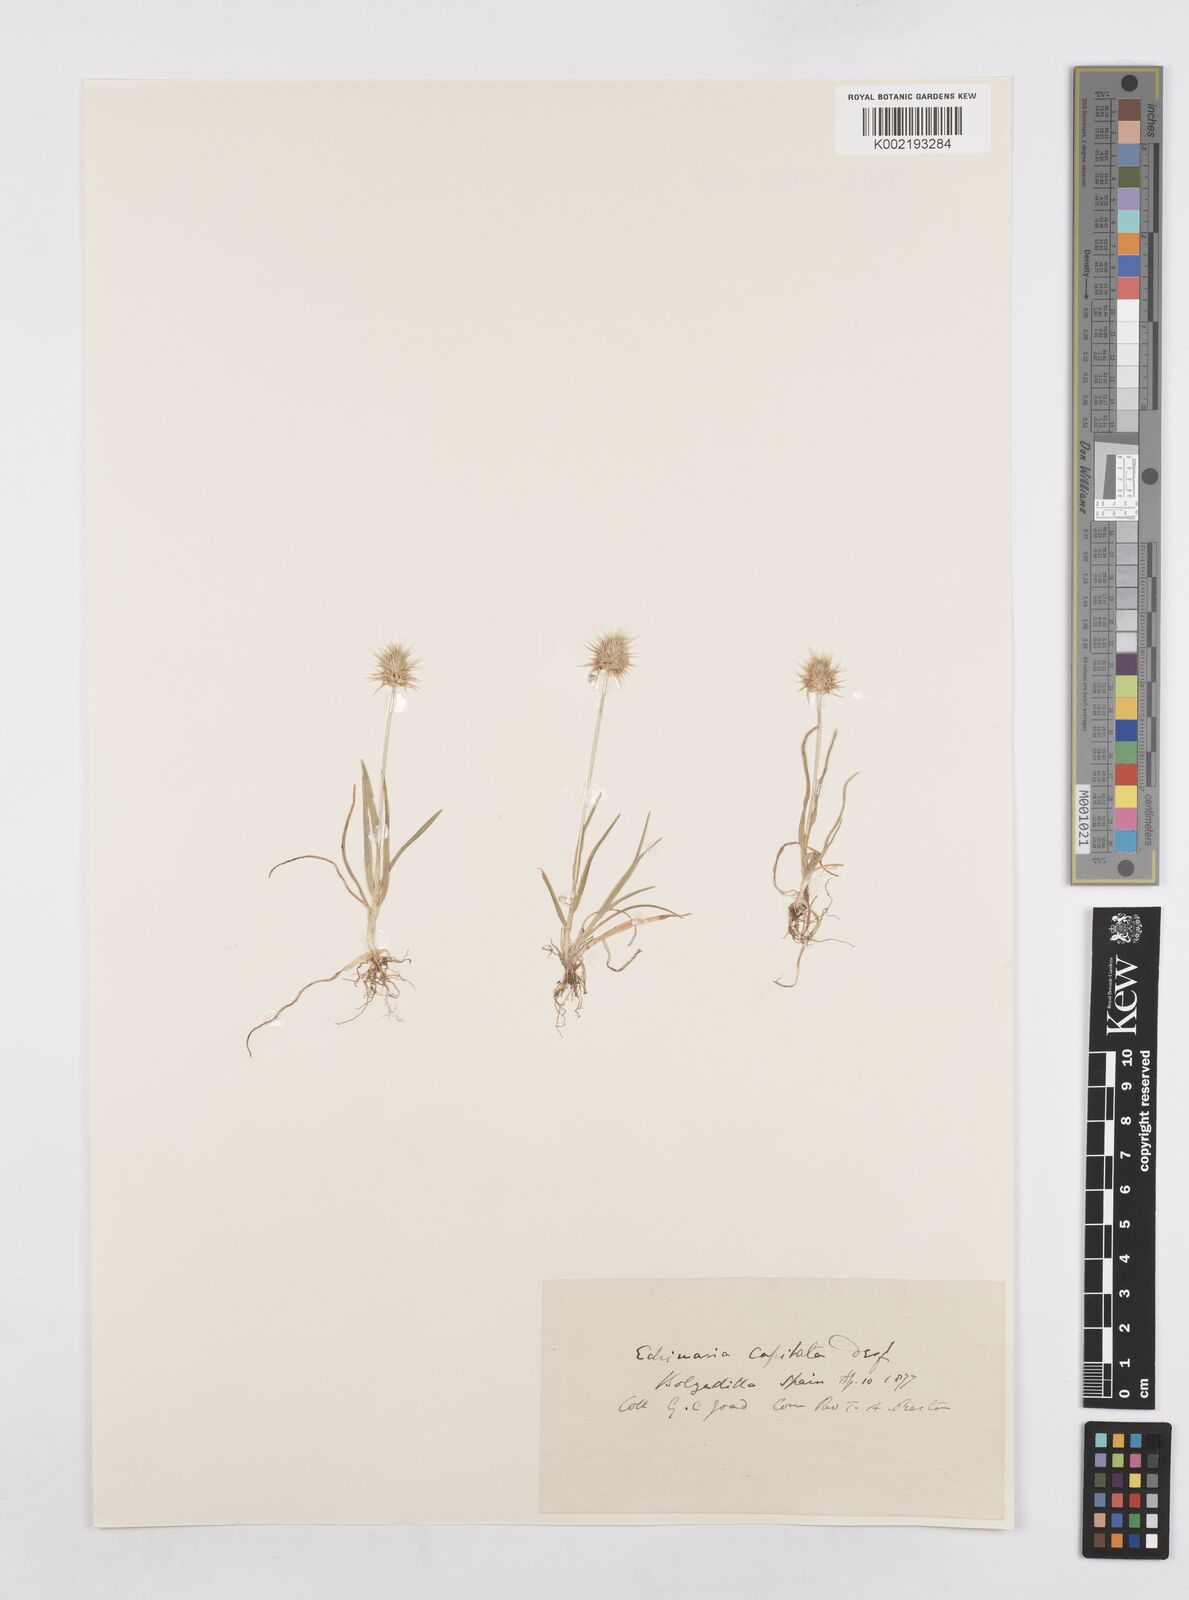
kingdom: Plantae
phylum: Tracheophyta
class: Liliopsida
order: Poales
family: Poaceae
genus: Echinaria
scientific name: Echinaria capitata
